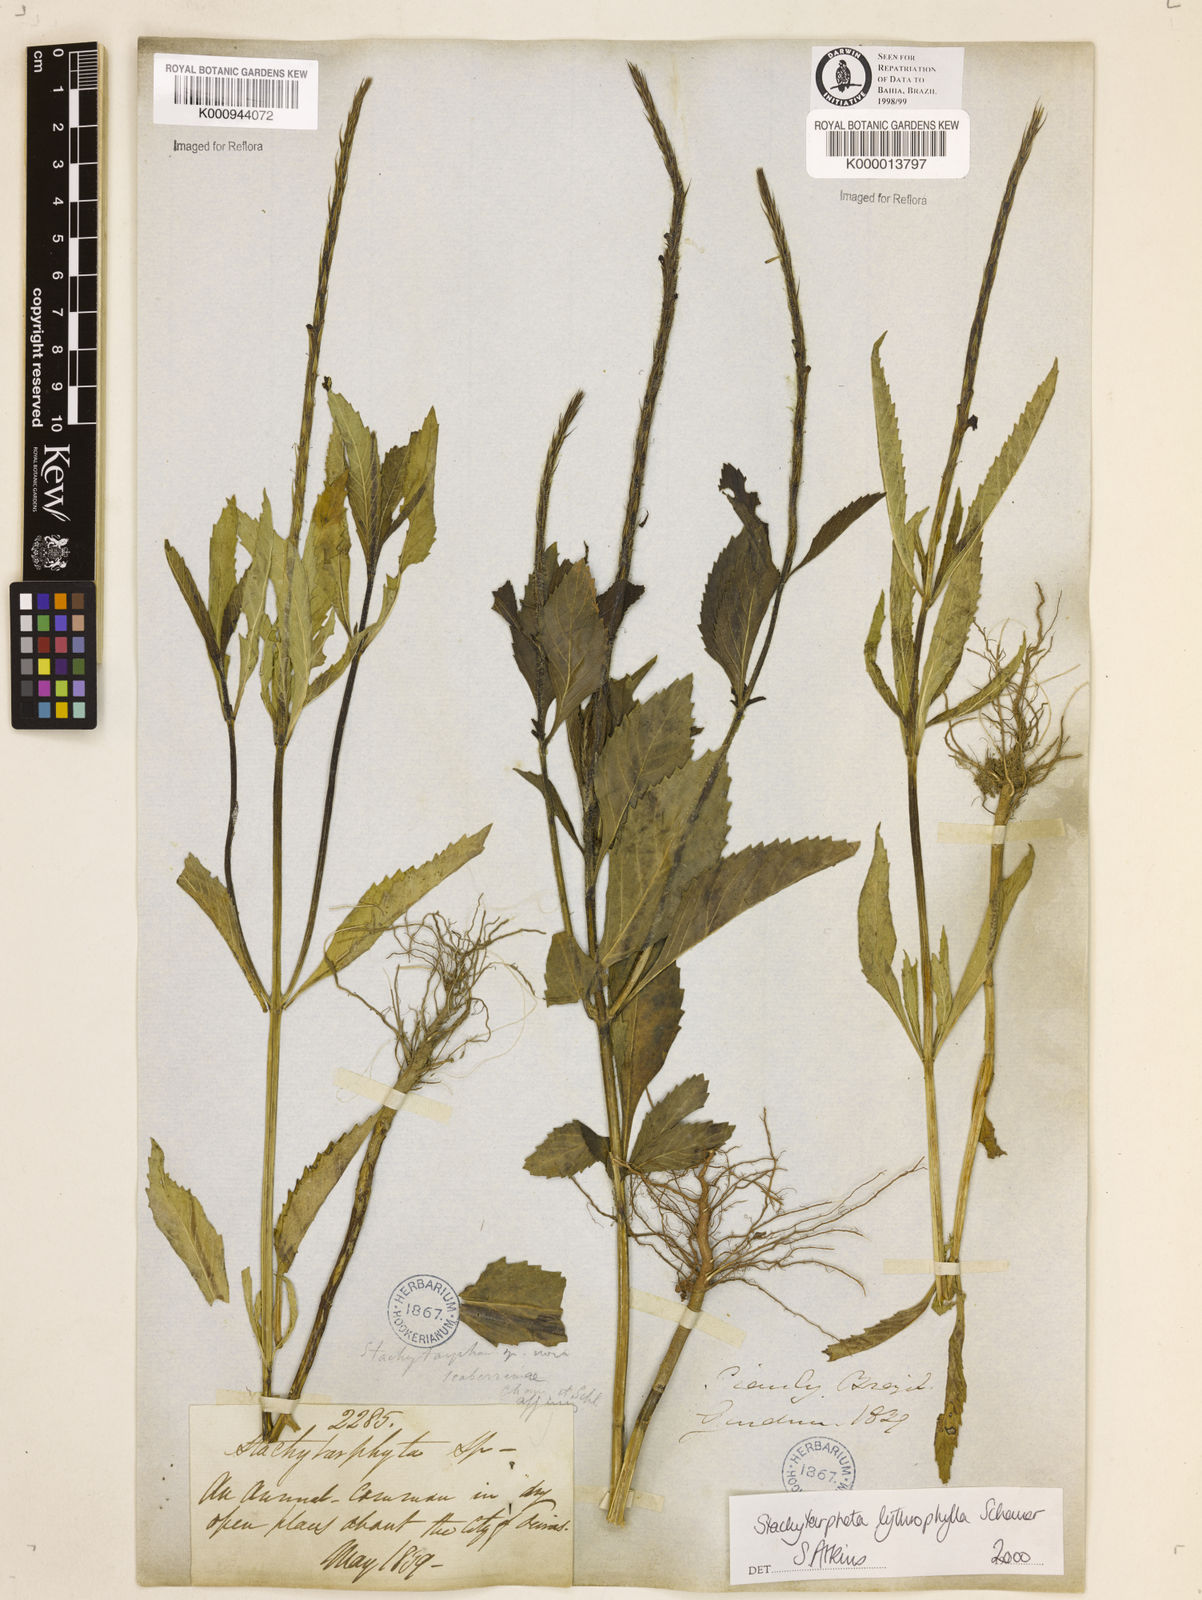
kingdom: Plantae
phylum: Tracheophyta
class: Magnoliopsida
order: Lamiales
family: Verbenaceae
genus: Stachytarpheta
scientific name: Stachytarpheta lythrophylla
